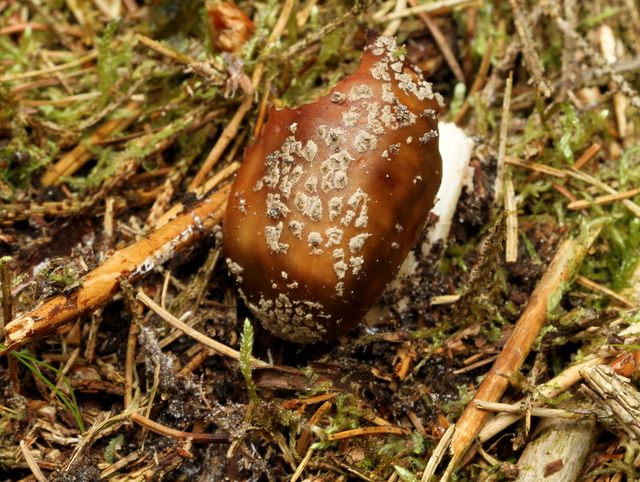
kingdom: Fungi
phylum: Basidiomycota
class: Agaricomycetes
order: Agaricales
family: Amanitaceae
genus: Amanita
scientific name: Amanita rubescens
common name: rødmende fluesvamp
